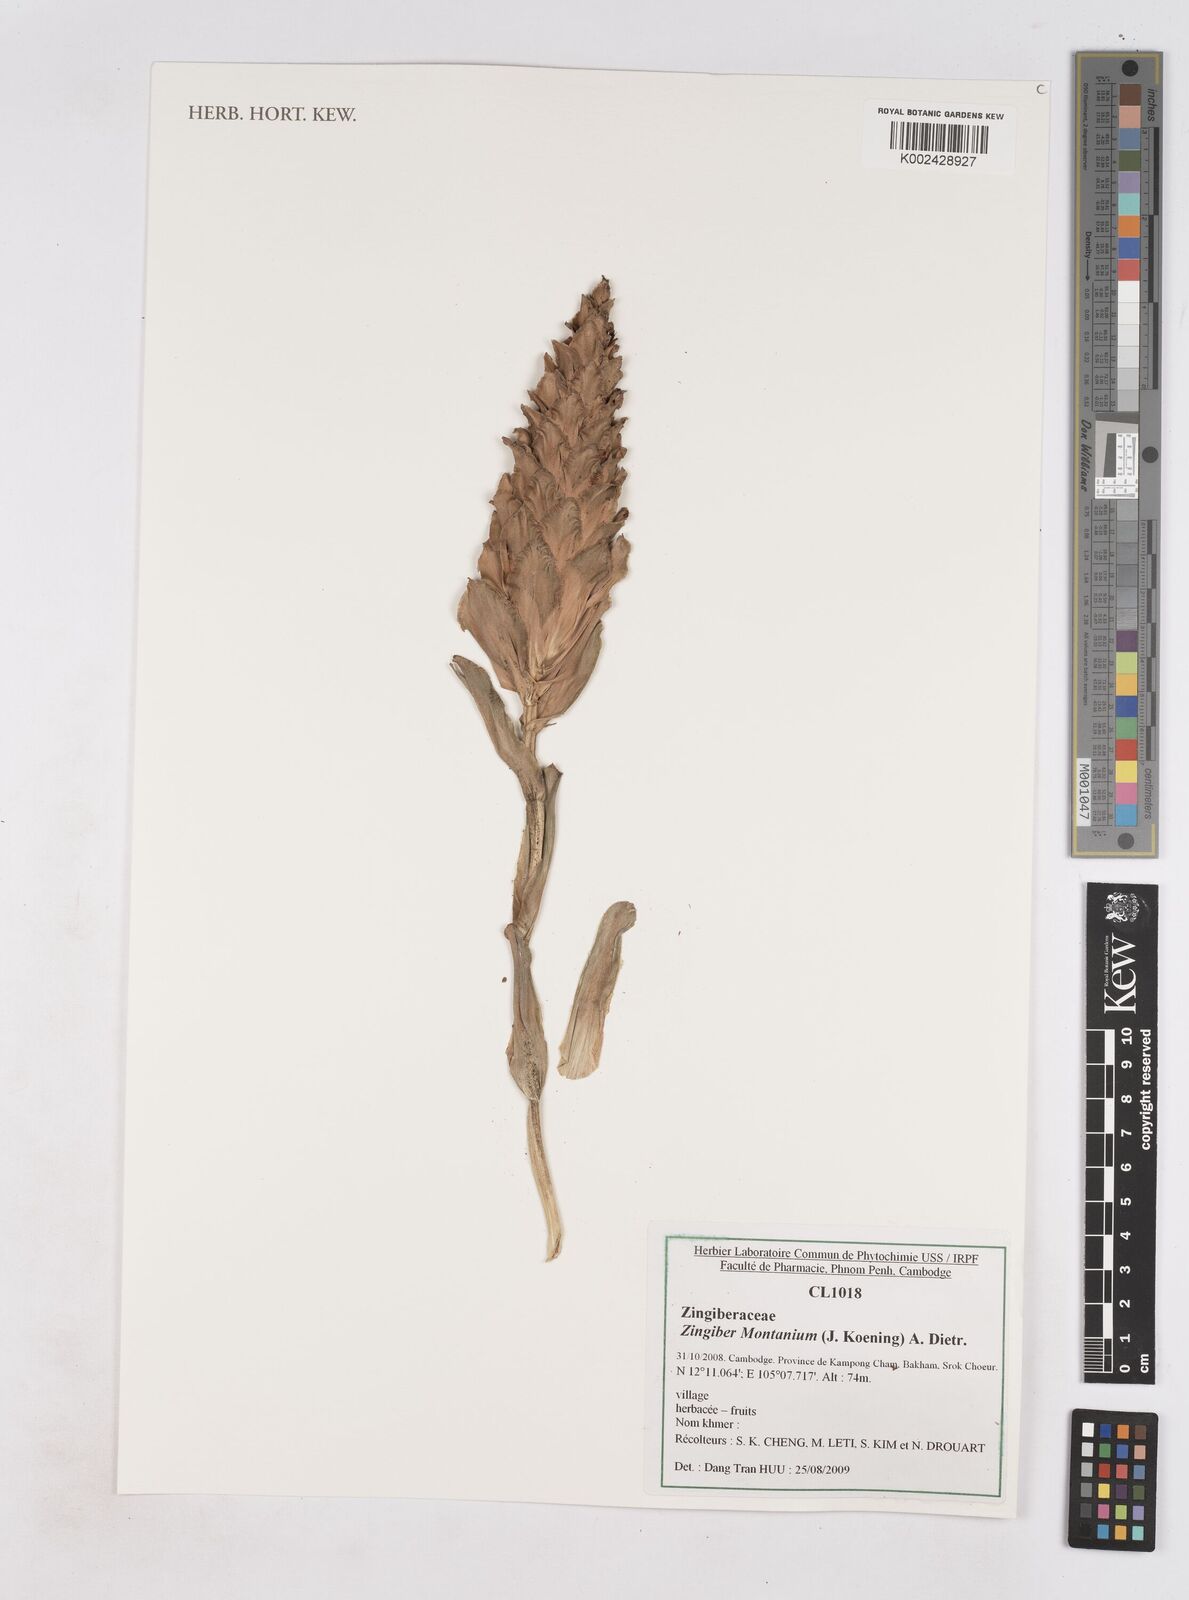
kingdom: Plantae
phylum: Tracheophyta
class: Liliopsida
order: Zingiberales
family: Zingiberaceae
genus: Zingiber
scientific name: Zingiber montanum
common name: Bengal ginger
